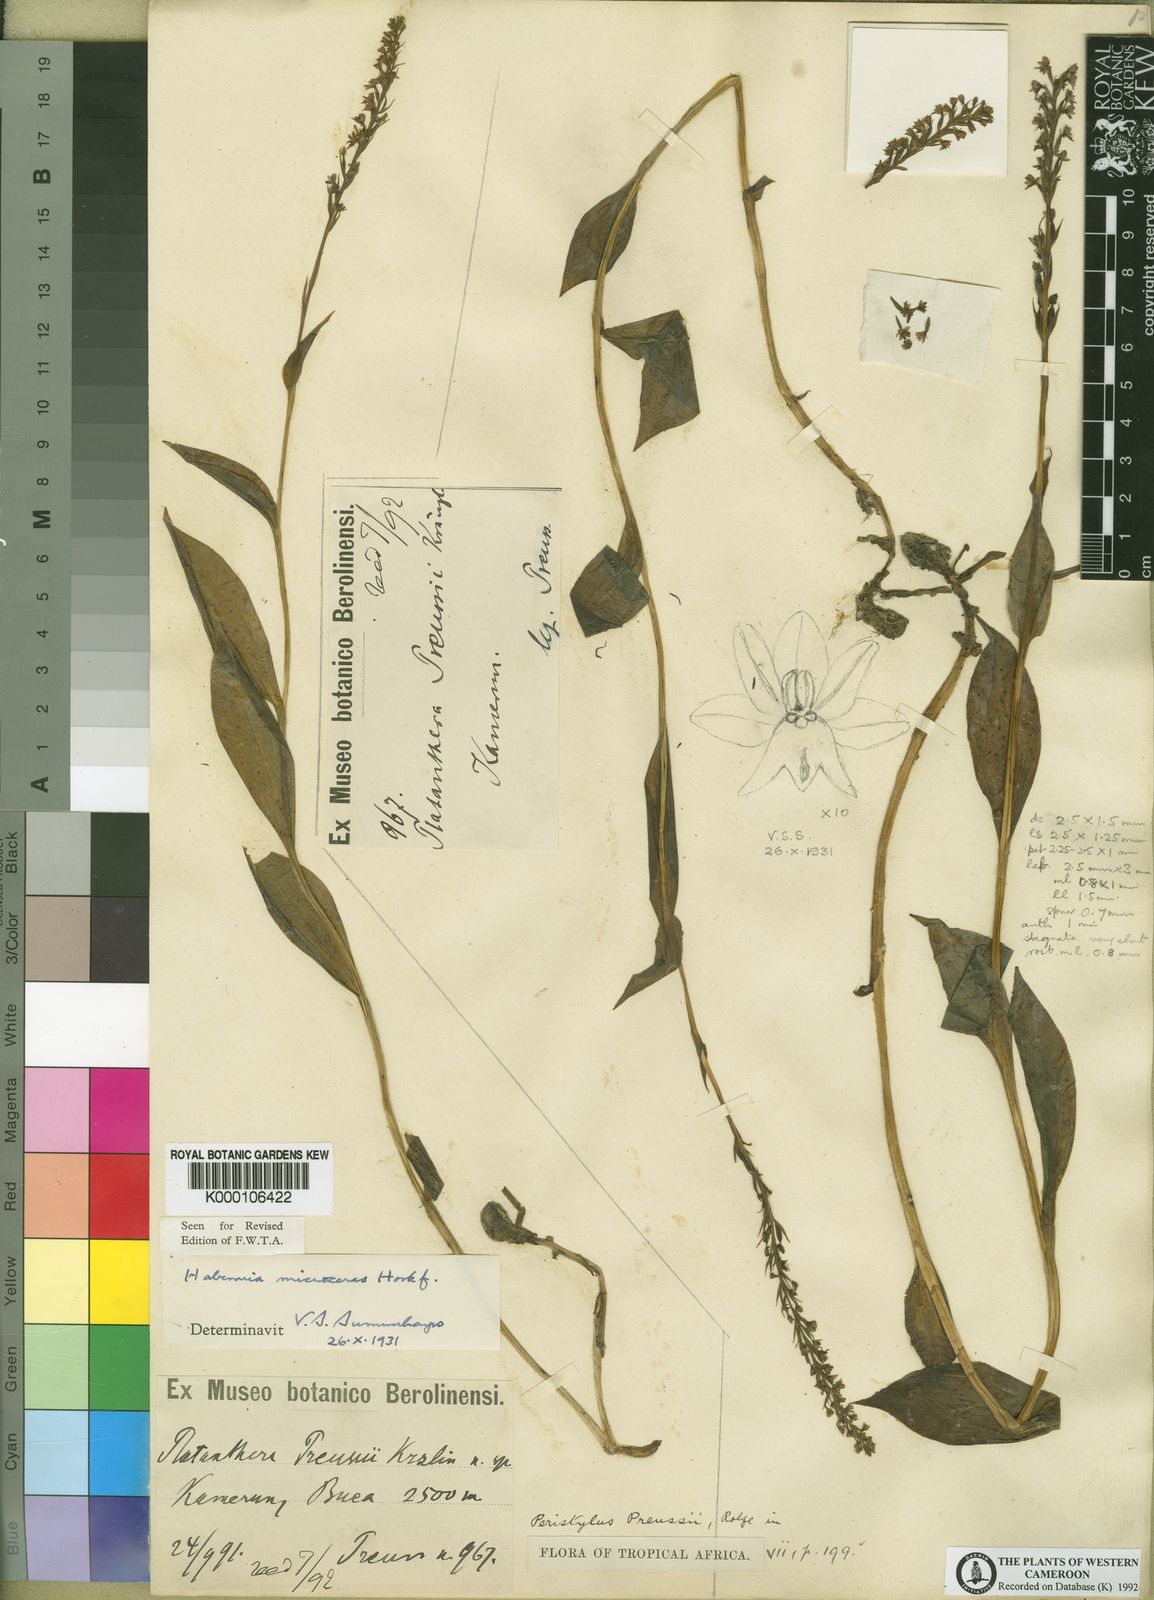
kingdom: Plantae
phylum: Tracheophyta
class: Liliopsida
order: Asparagales
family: Orchidaceae
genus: Habenaria
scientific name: Habenaria microceras
